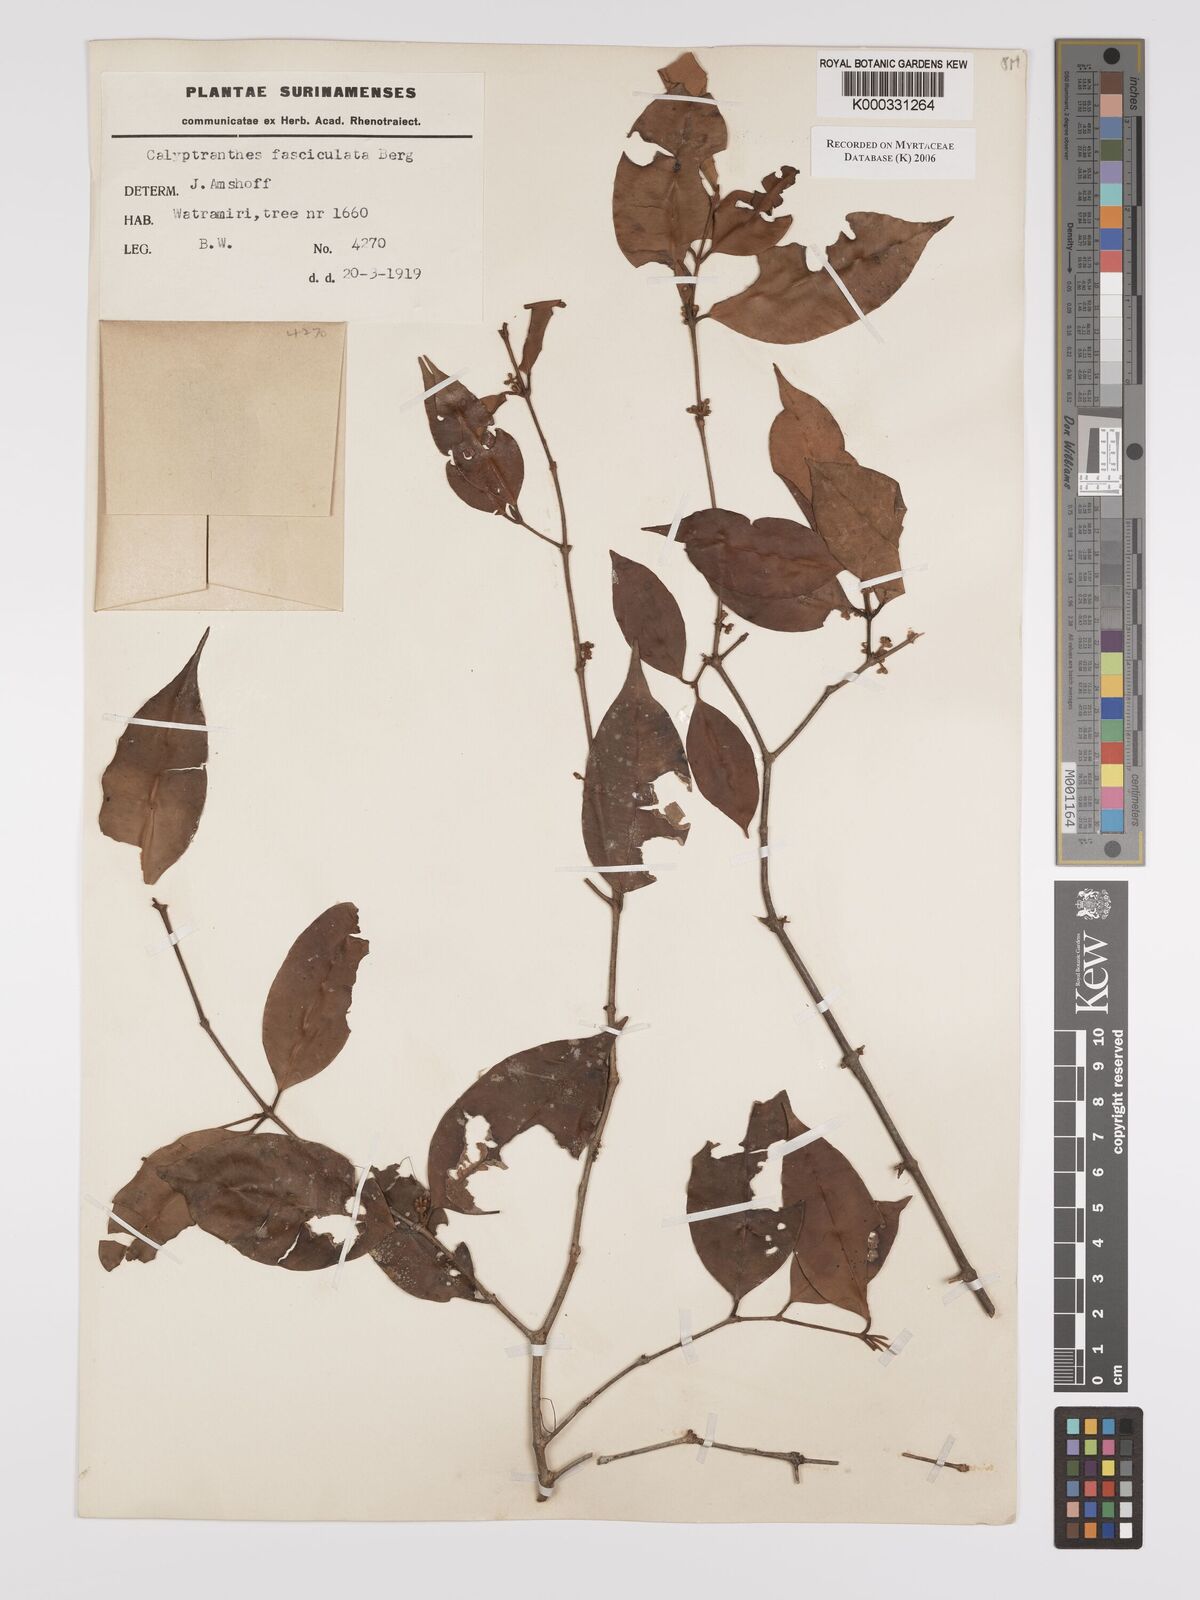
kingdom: Plantae
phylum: Tracheophyta
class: Magnoliopsida
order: Myrtales
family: Myrtaceae
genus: Myrcia
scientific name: Myrcia fasciculata
